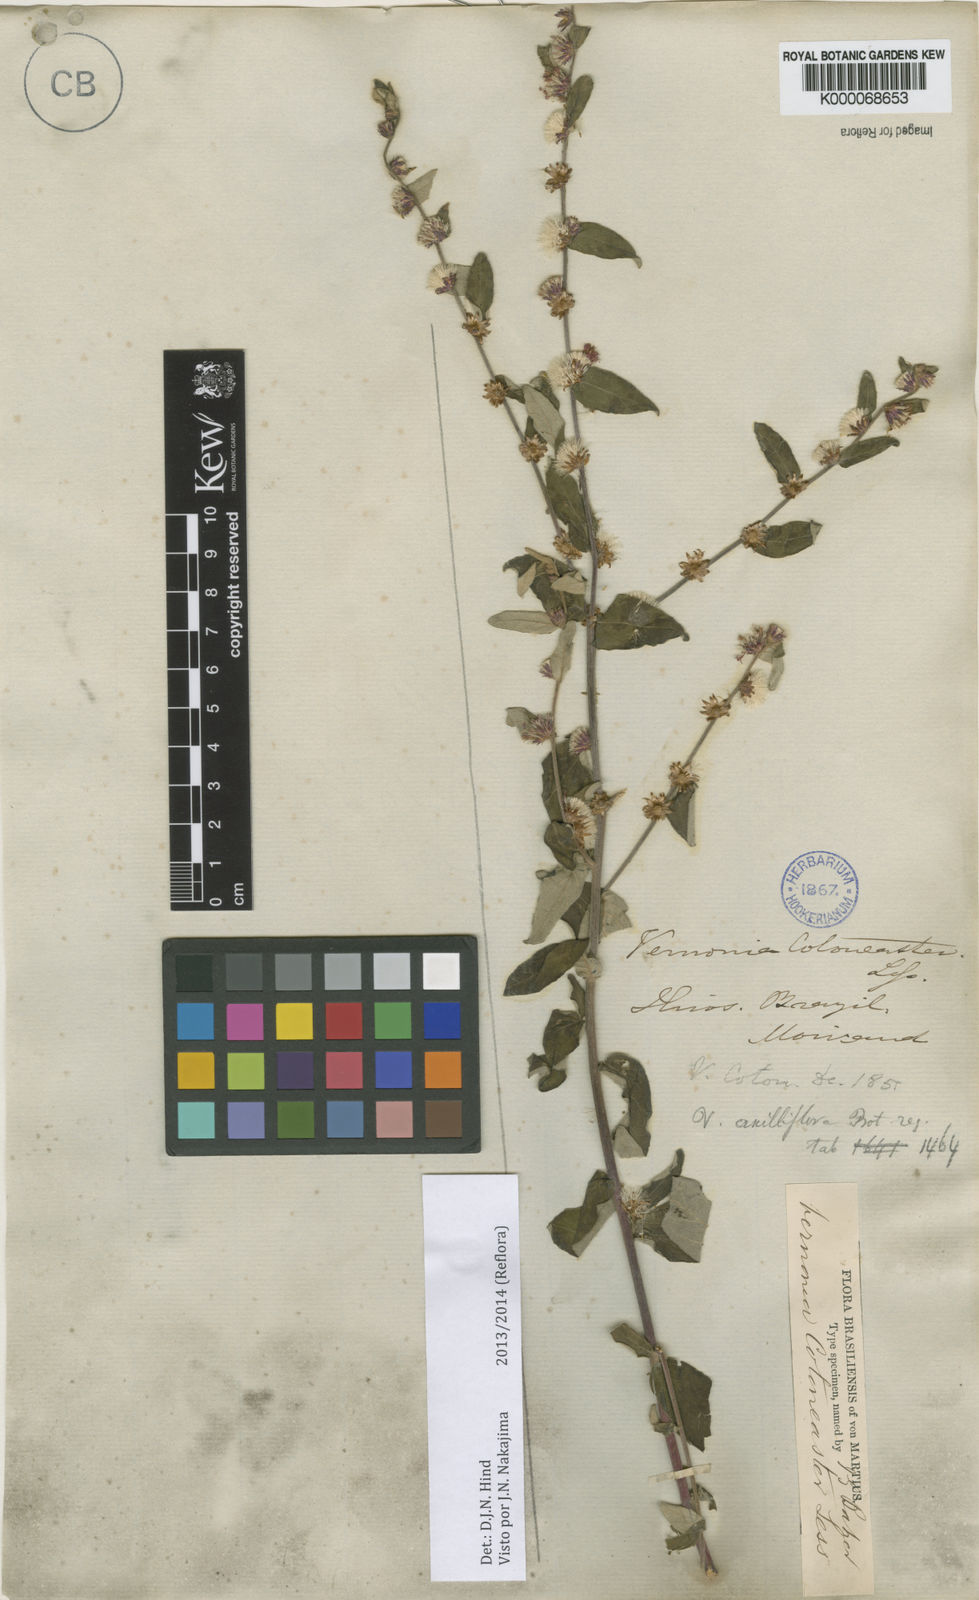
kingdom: Plantae
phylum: Tracheophyta
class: Magnoliopsida
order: Asterales
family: Asteraceae
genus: Lepidaploa
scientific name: Lepidaploa cotoneaster
